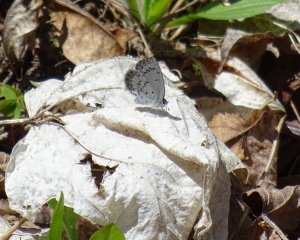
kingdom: Animalia
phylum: Arthropoda
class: Insecta
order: Lepidoptera
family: Lycaenidae
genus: Celastrina
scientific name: Celastrina lucia
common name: Northern Spring Azure
